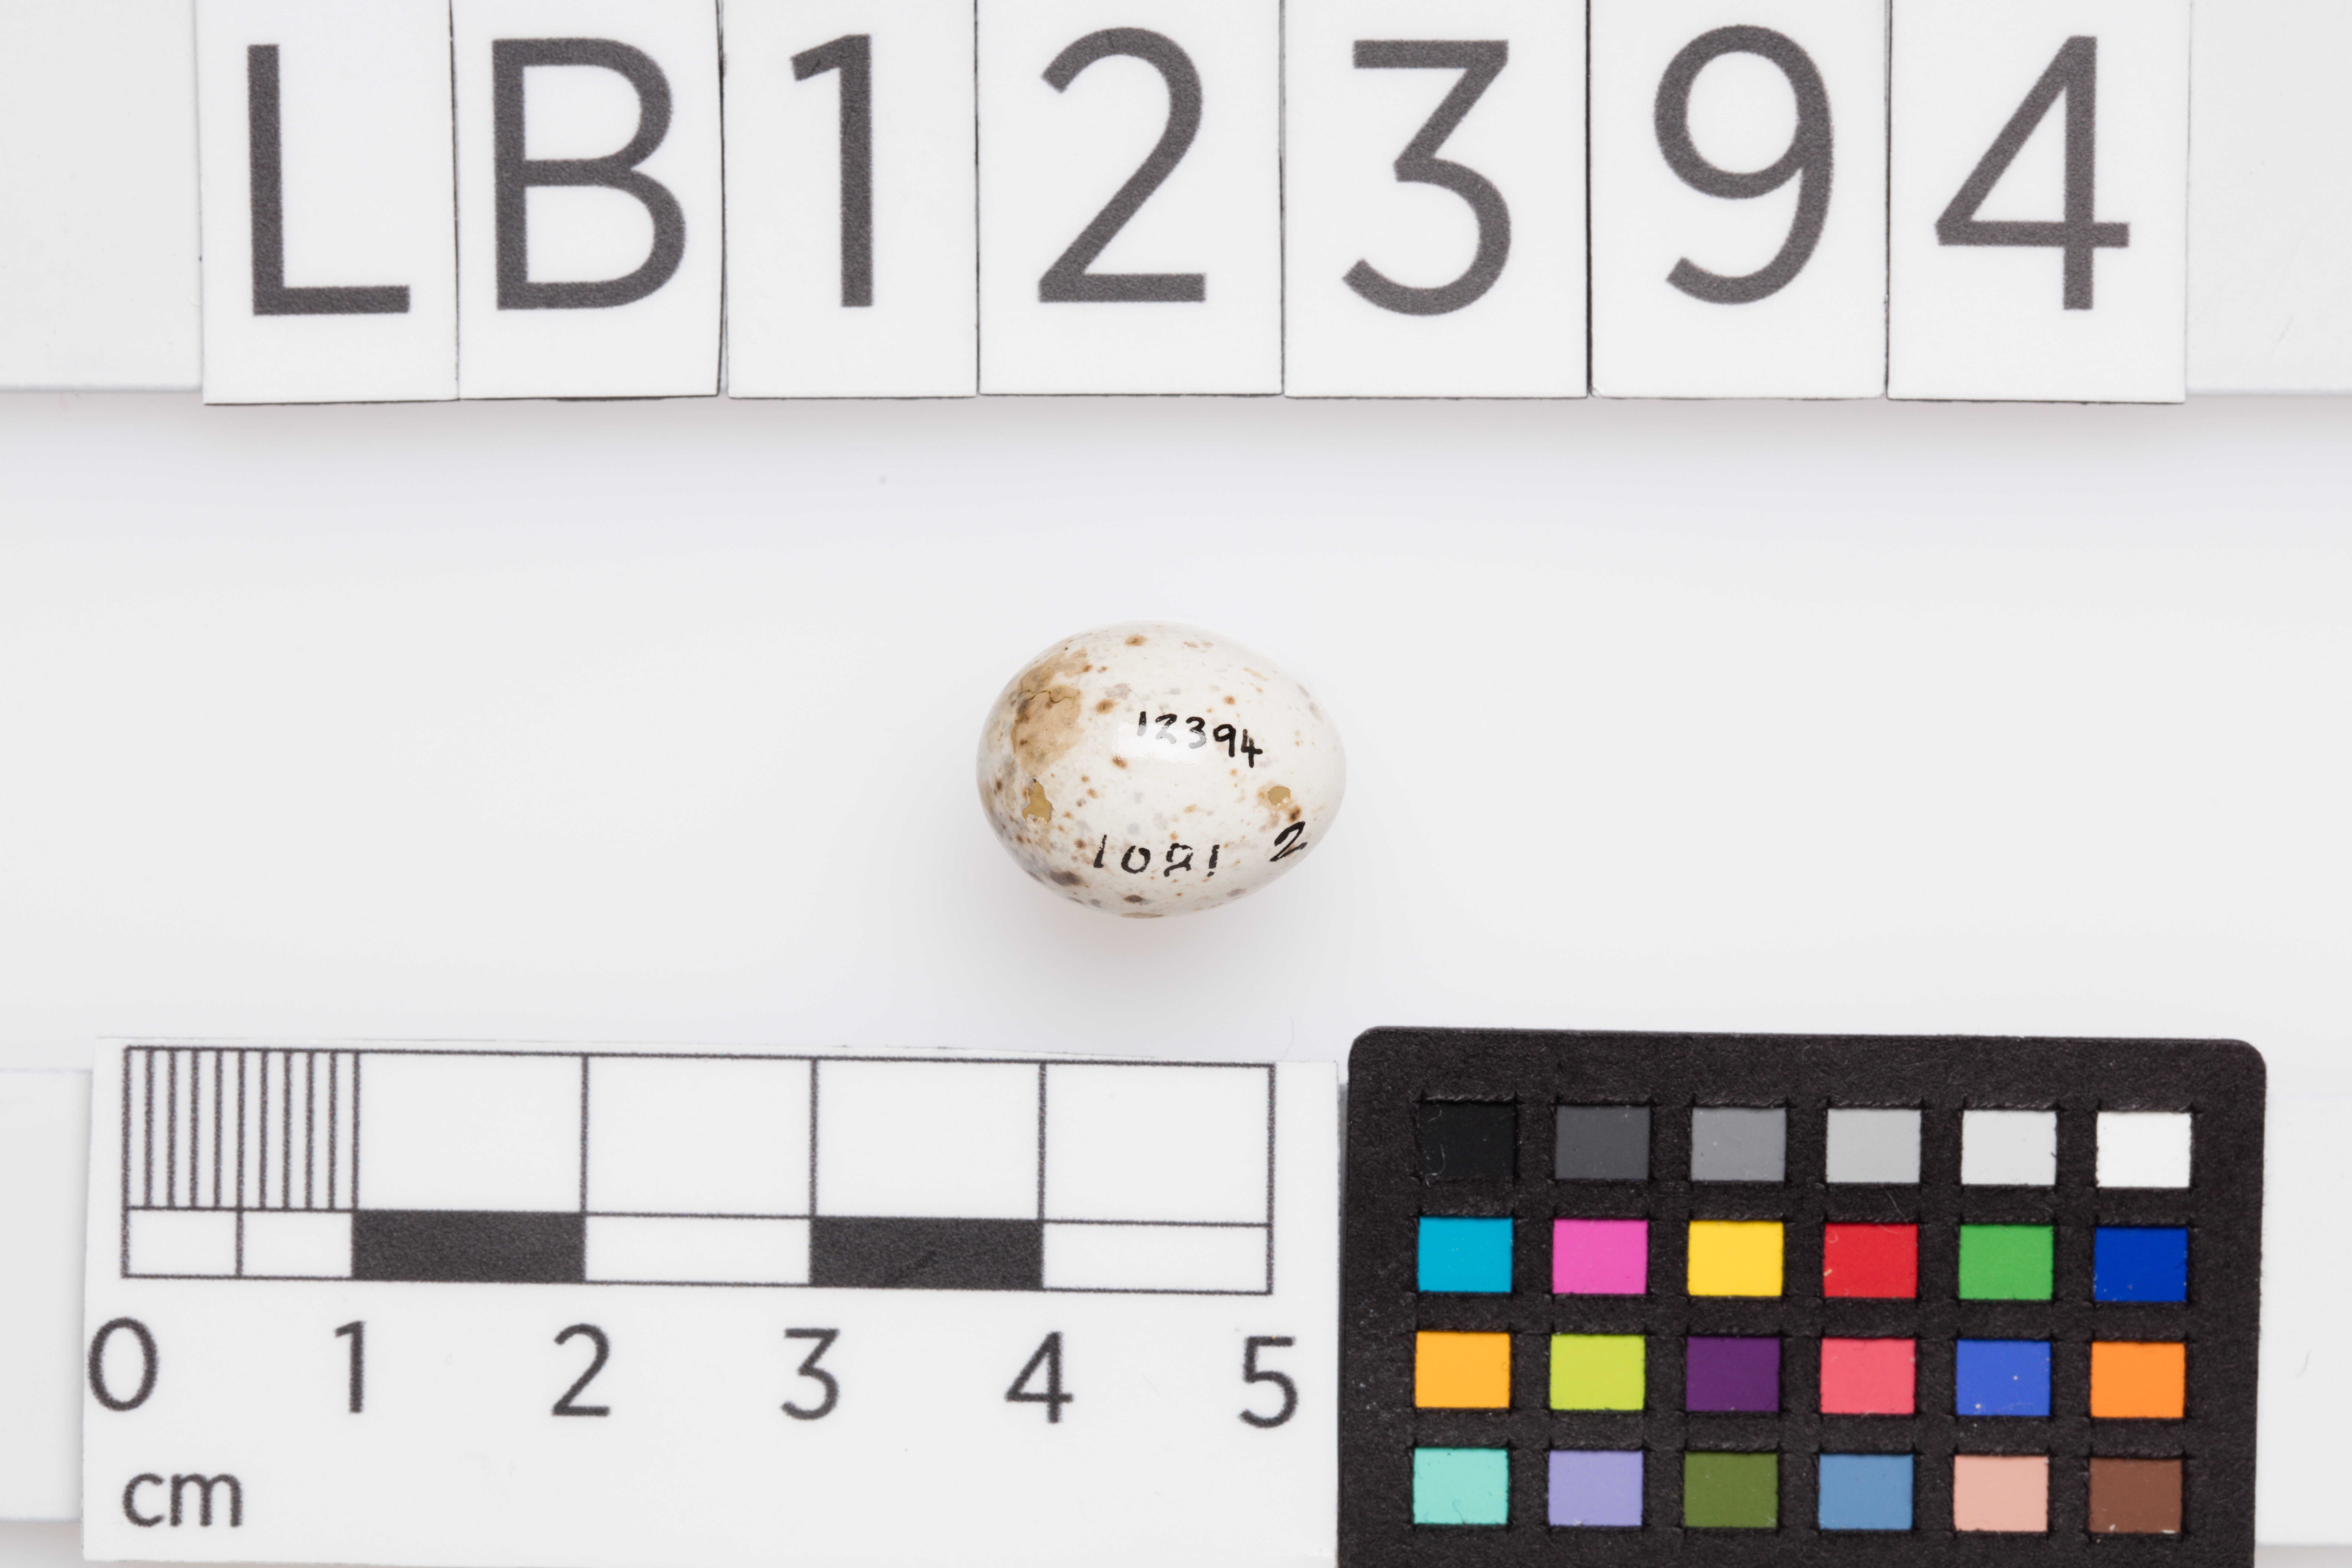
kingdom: Animalia
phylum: Chordata
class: Aves
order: Passeriformes
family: Sylviidae
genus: Sylvia
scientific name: Sylvia curruca
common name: Lesser whitethroat
